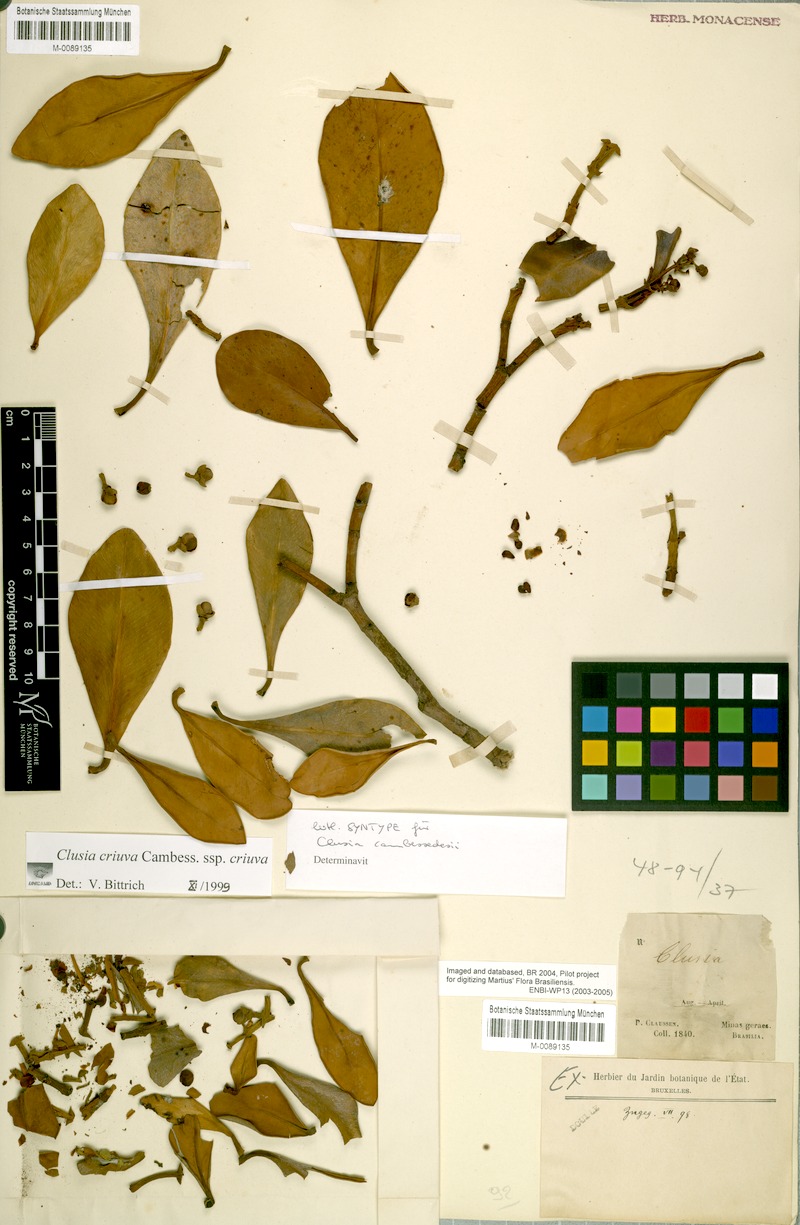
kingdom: Plantae
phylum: Tracheophyta
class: Magnoliopsida
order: Malpighiales
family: Clusiaceae
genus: Clusia
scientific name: Clusia cruiva
